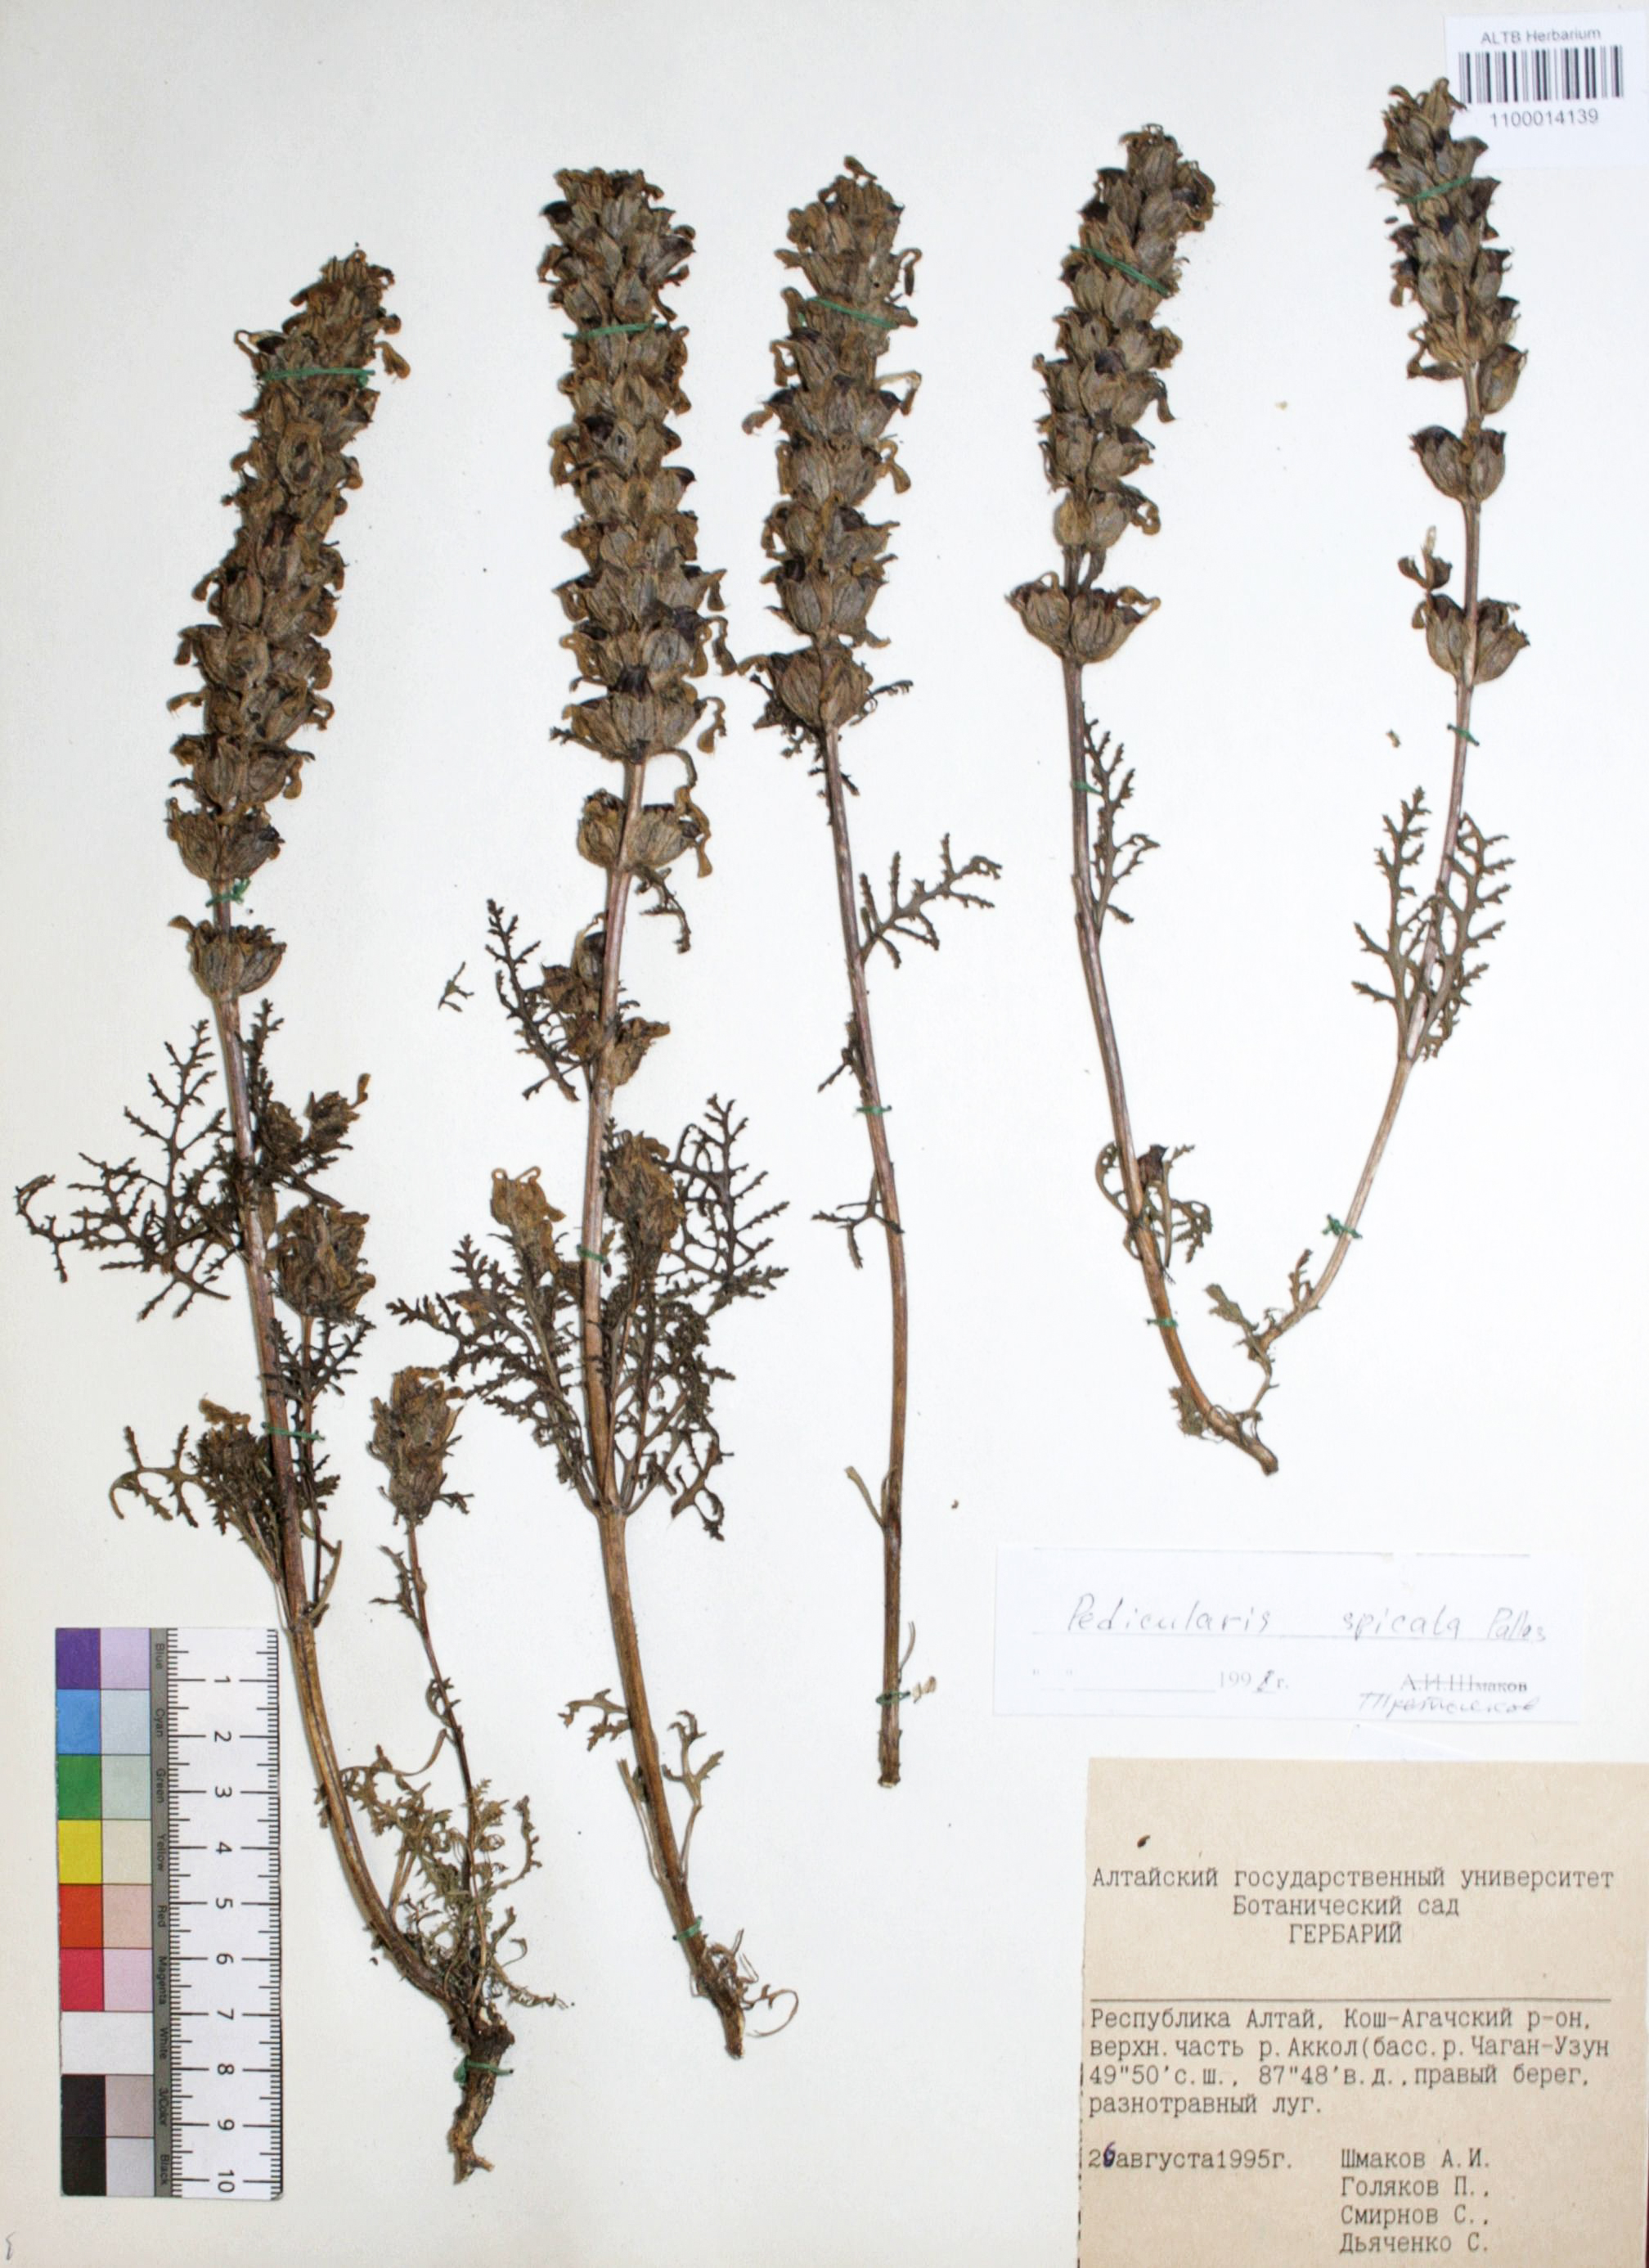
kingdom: Plantae
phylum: Tracheophyta
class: Magnoliopsida
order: Lamiales
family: Orobanchaceae
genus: Pedicularis
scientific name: Pedicularis spicata
